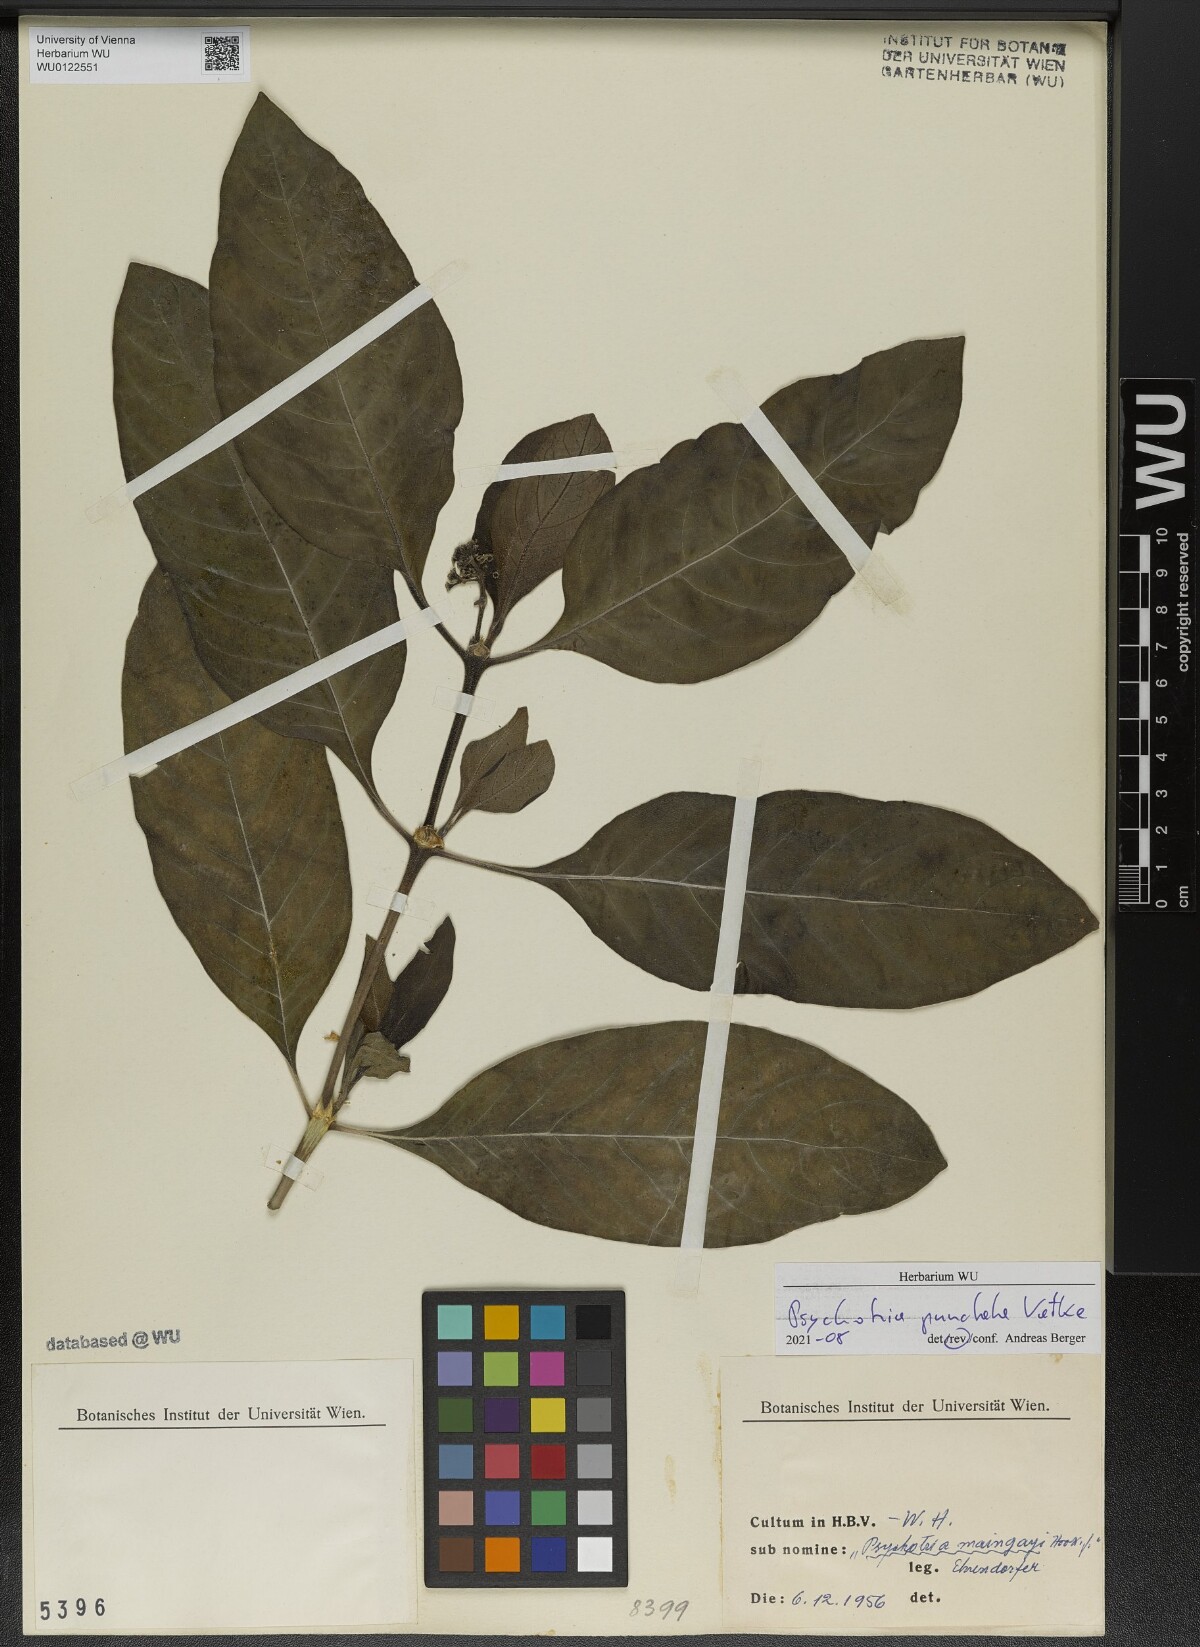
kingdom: Plantae
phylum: Tracheophyta
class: Magnoliopsida
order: Gentianales
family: Rubiaceae
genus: Psychotria
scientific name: Psychotria punctata
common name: Dotted wild coffee
